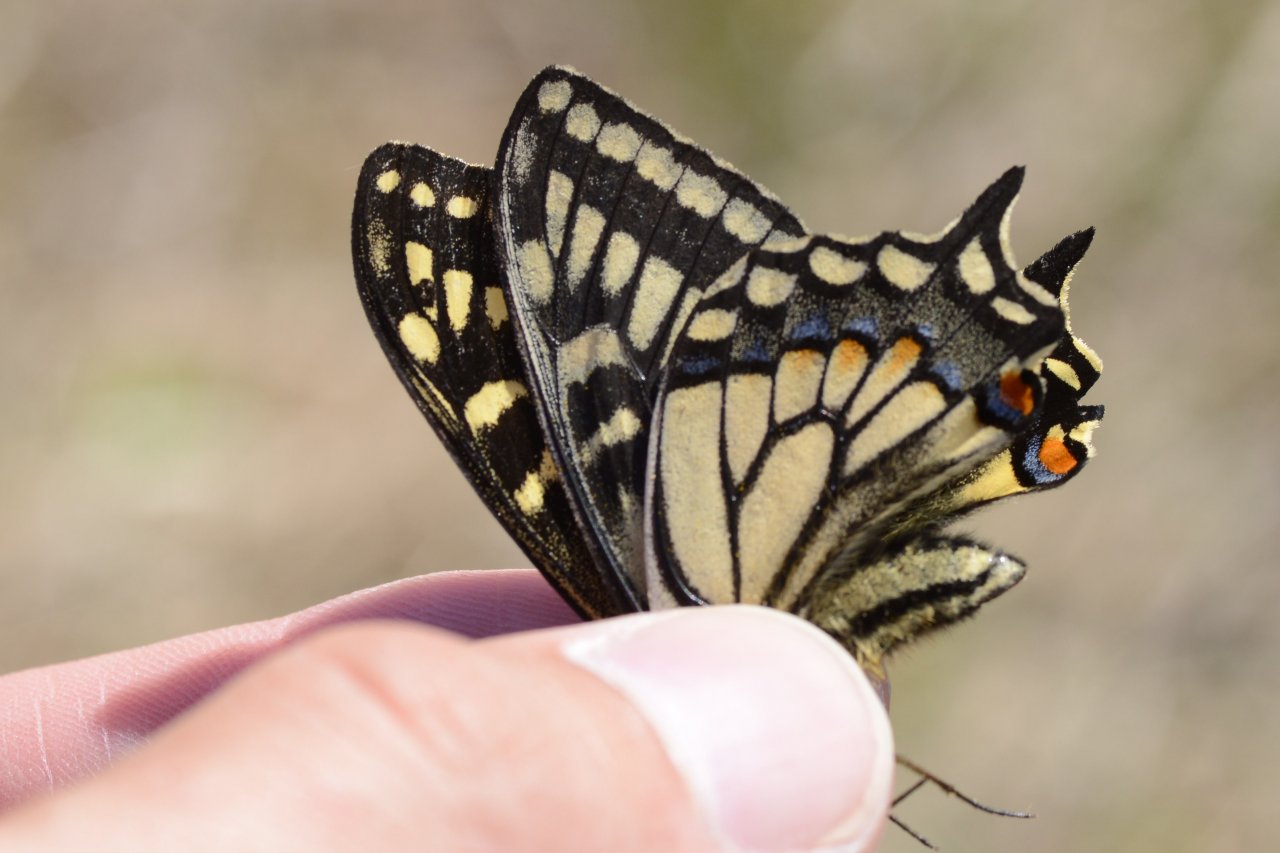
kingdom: Animalia
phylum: Arthropoda
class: Insecta
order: Lepidoptera
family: Papilionidae
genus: Papilio
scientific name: Papilio machaon
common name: Old World Swallowtail
